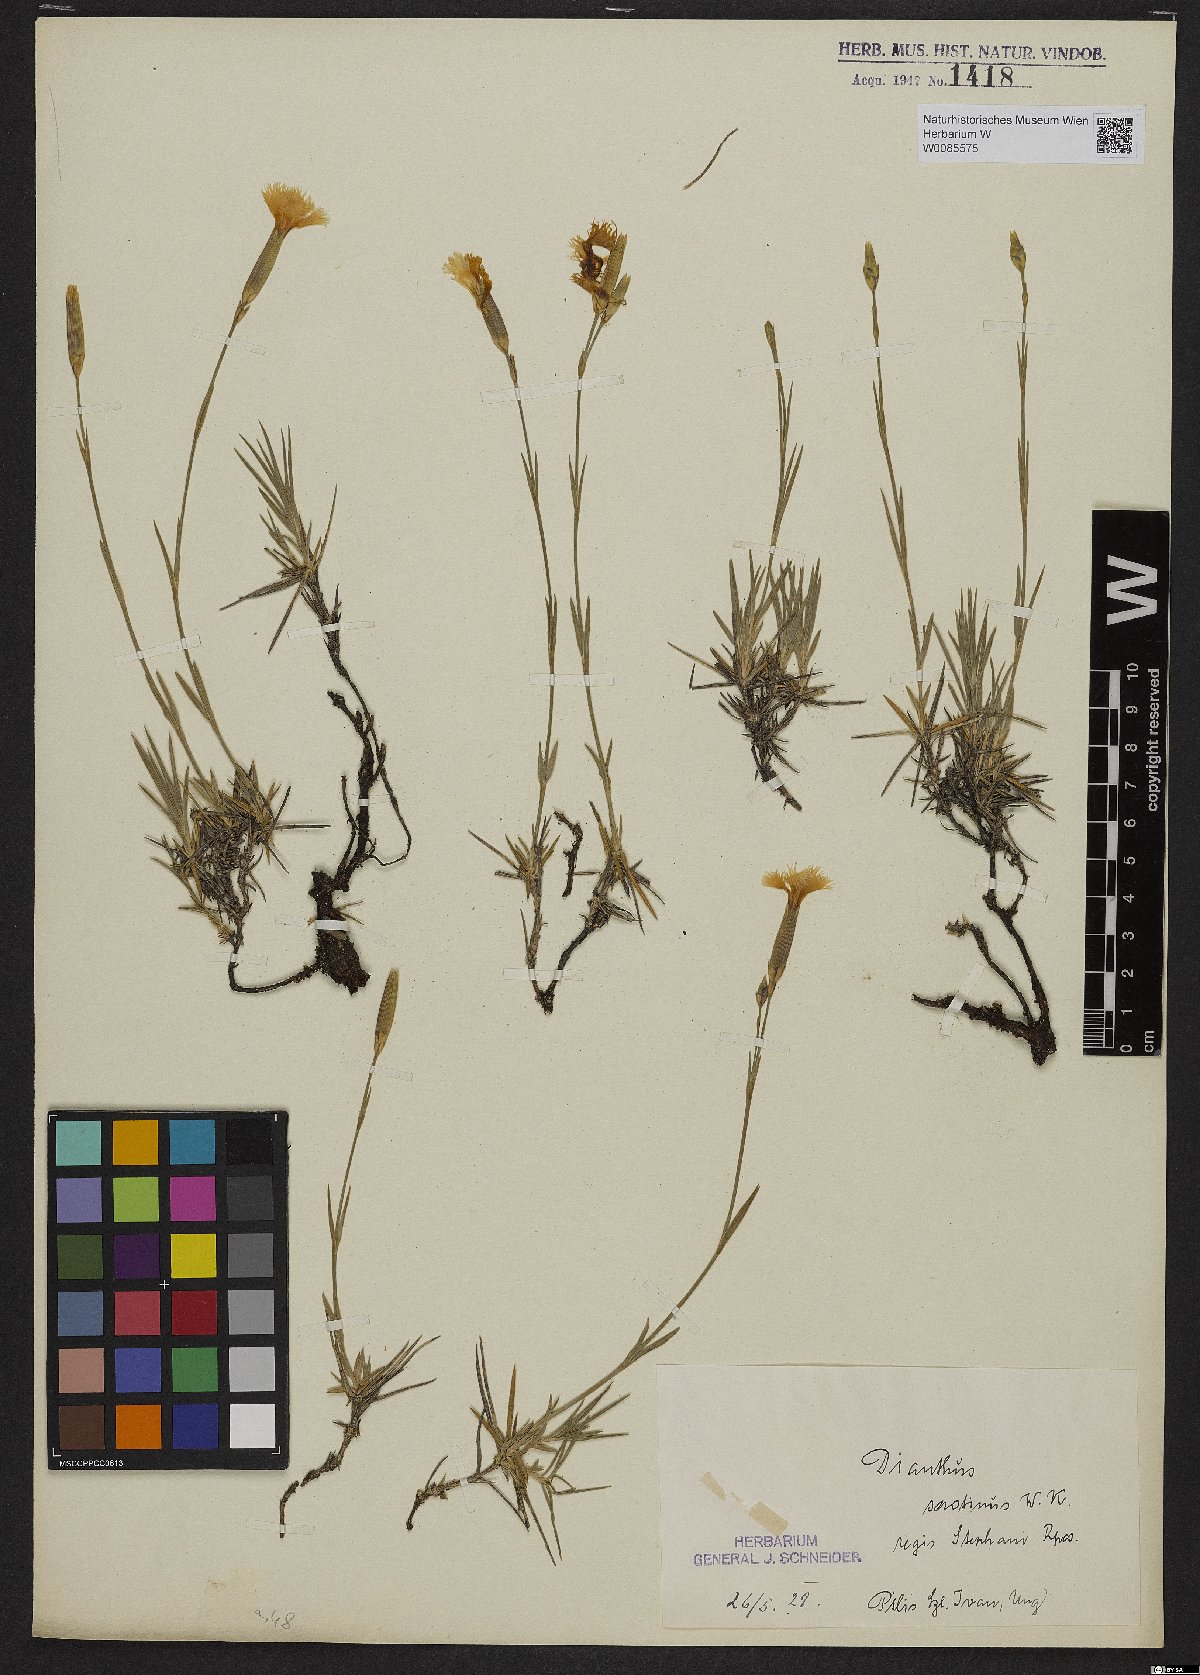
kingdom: Plantae
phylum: Tracheophyta
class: Magnoliopsida
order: Caryophyllales
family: Caryophyllaceae
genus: Dianthus
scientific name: Dianthus plumarius
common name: Pink
